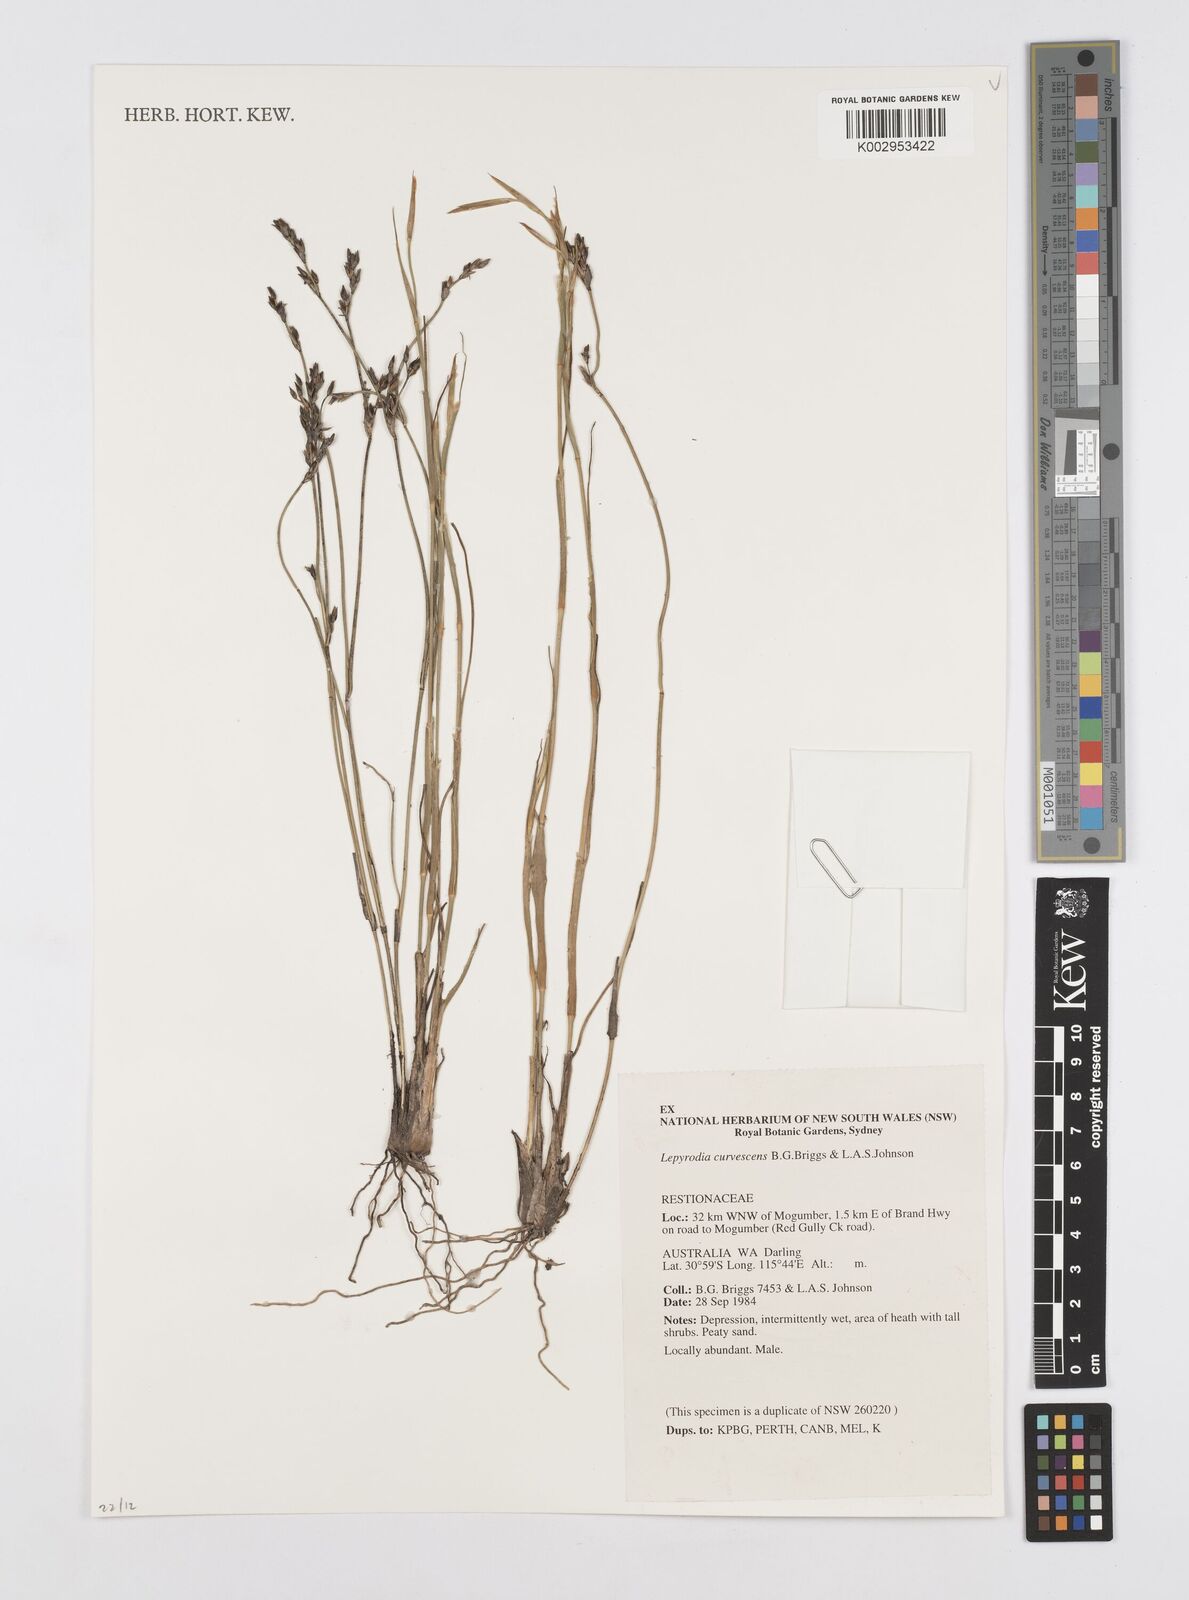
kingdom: Plantae
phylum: Tracheophyta
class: Liliopsida
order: Poales
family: Restionaceae
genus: Lepyrodia
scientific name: Lepyrodia curvescens
